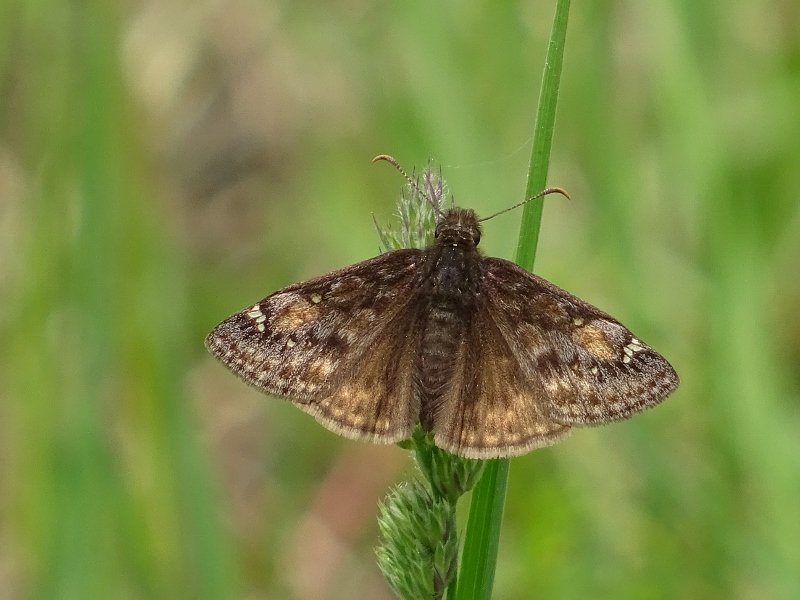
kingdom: Animalia
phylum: Arthropoda
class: Insecta
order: Lepidoptera
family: Hesperiidae
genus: Gesta
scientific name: Gesta
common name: Juvenal's Duskywing
